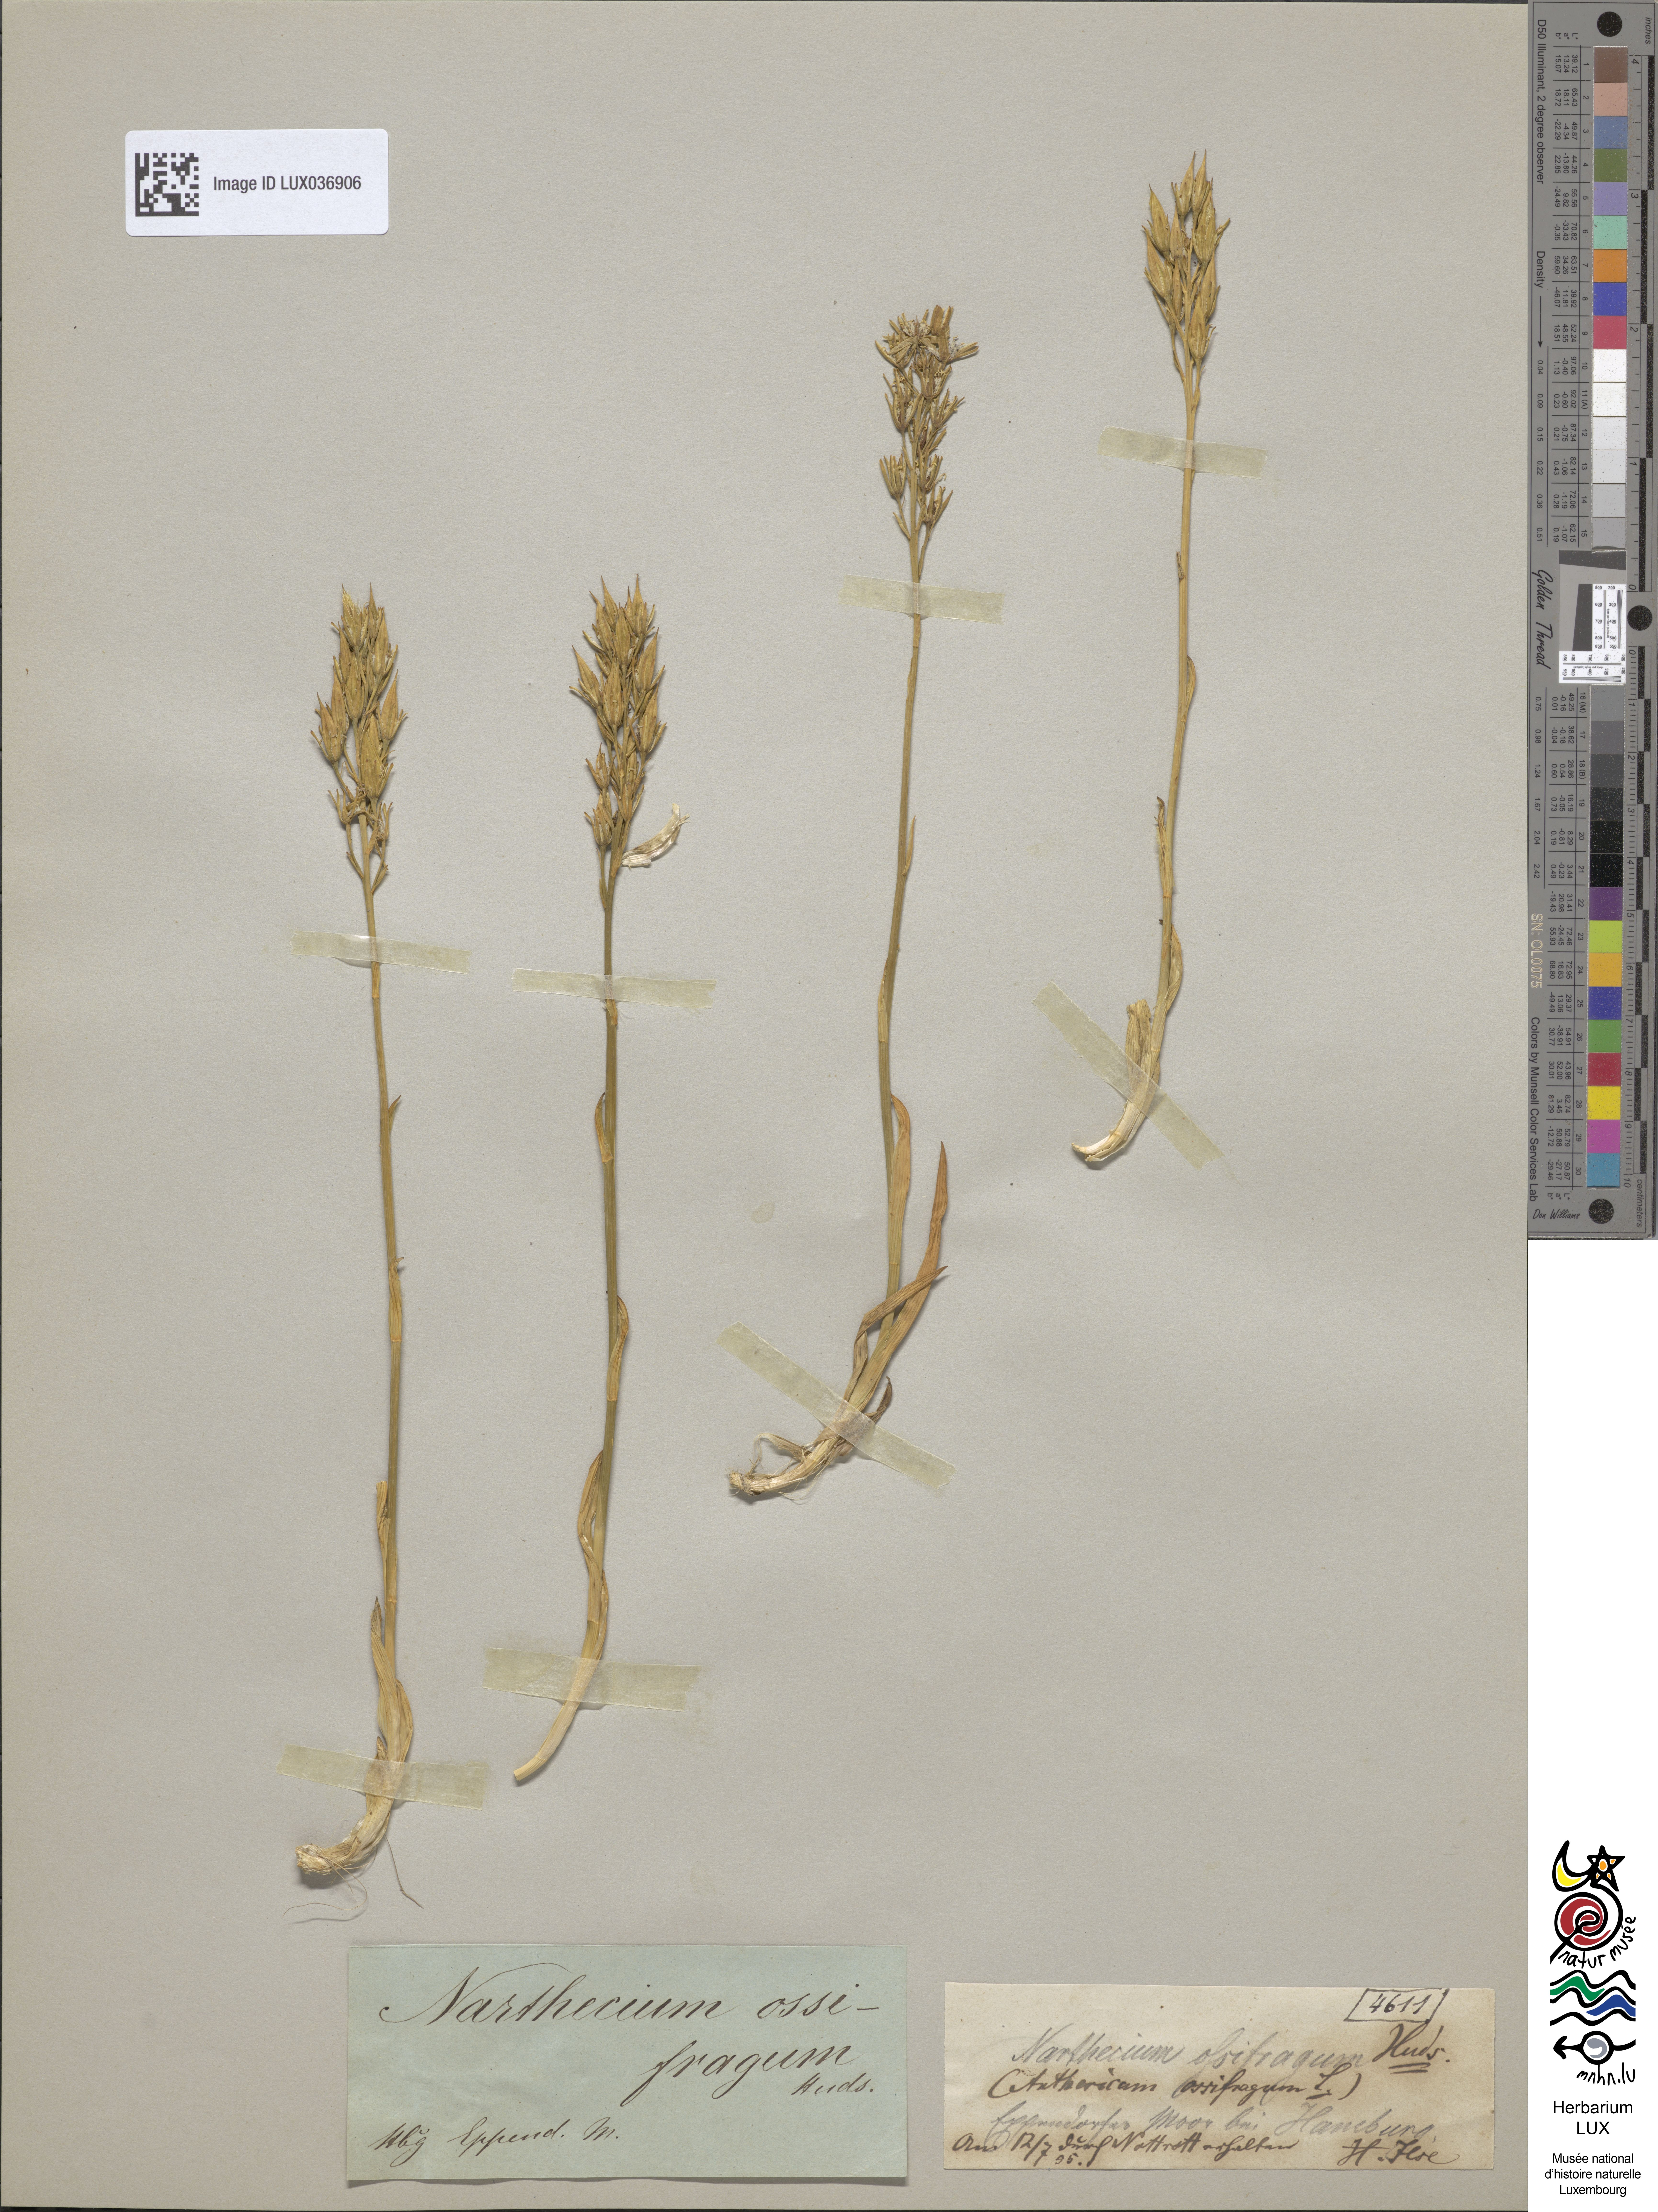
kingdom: Plantae
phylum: Tracheophyta
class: Liliopsida
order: Dioscoreales
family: Nartheciaceae
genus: Narthecium
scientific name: Narthecium ossifragum
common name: Bog asphodel
